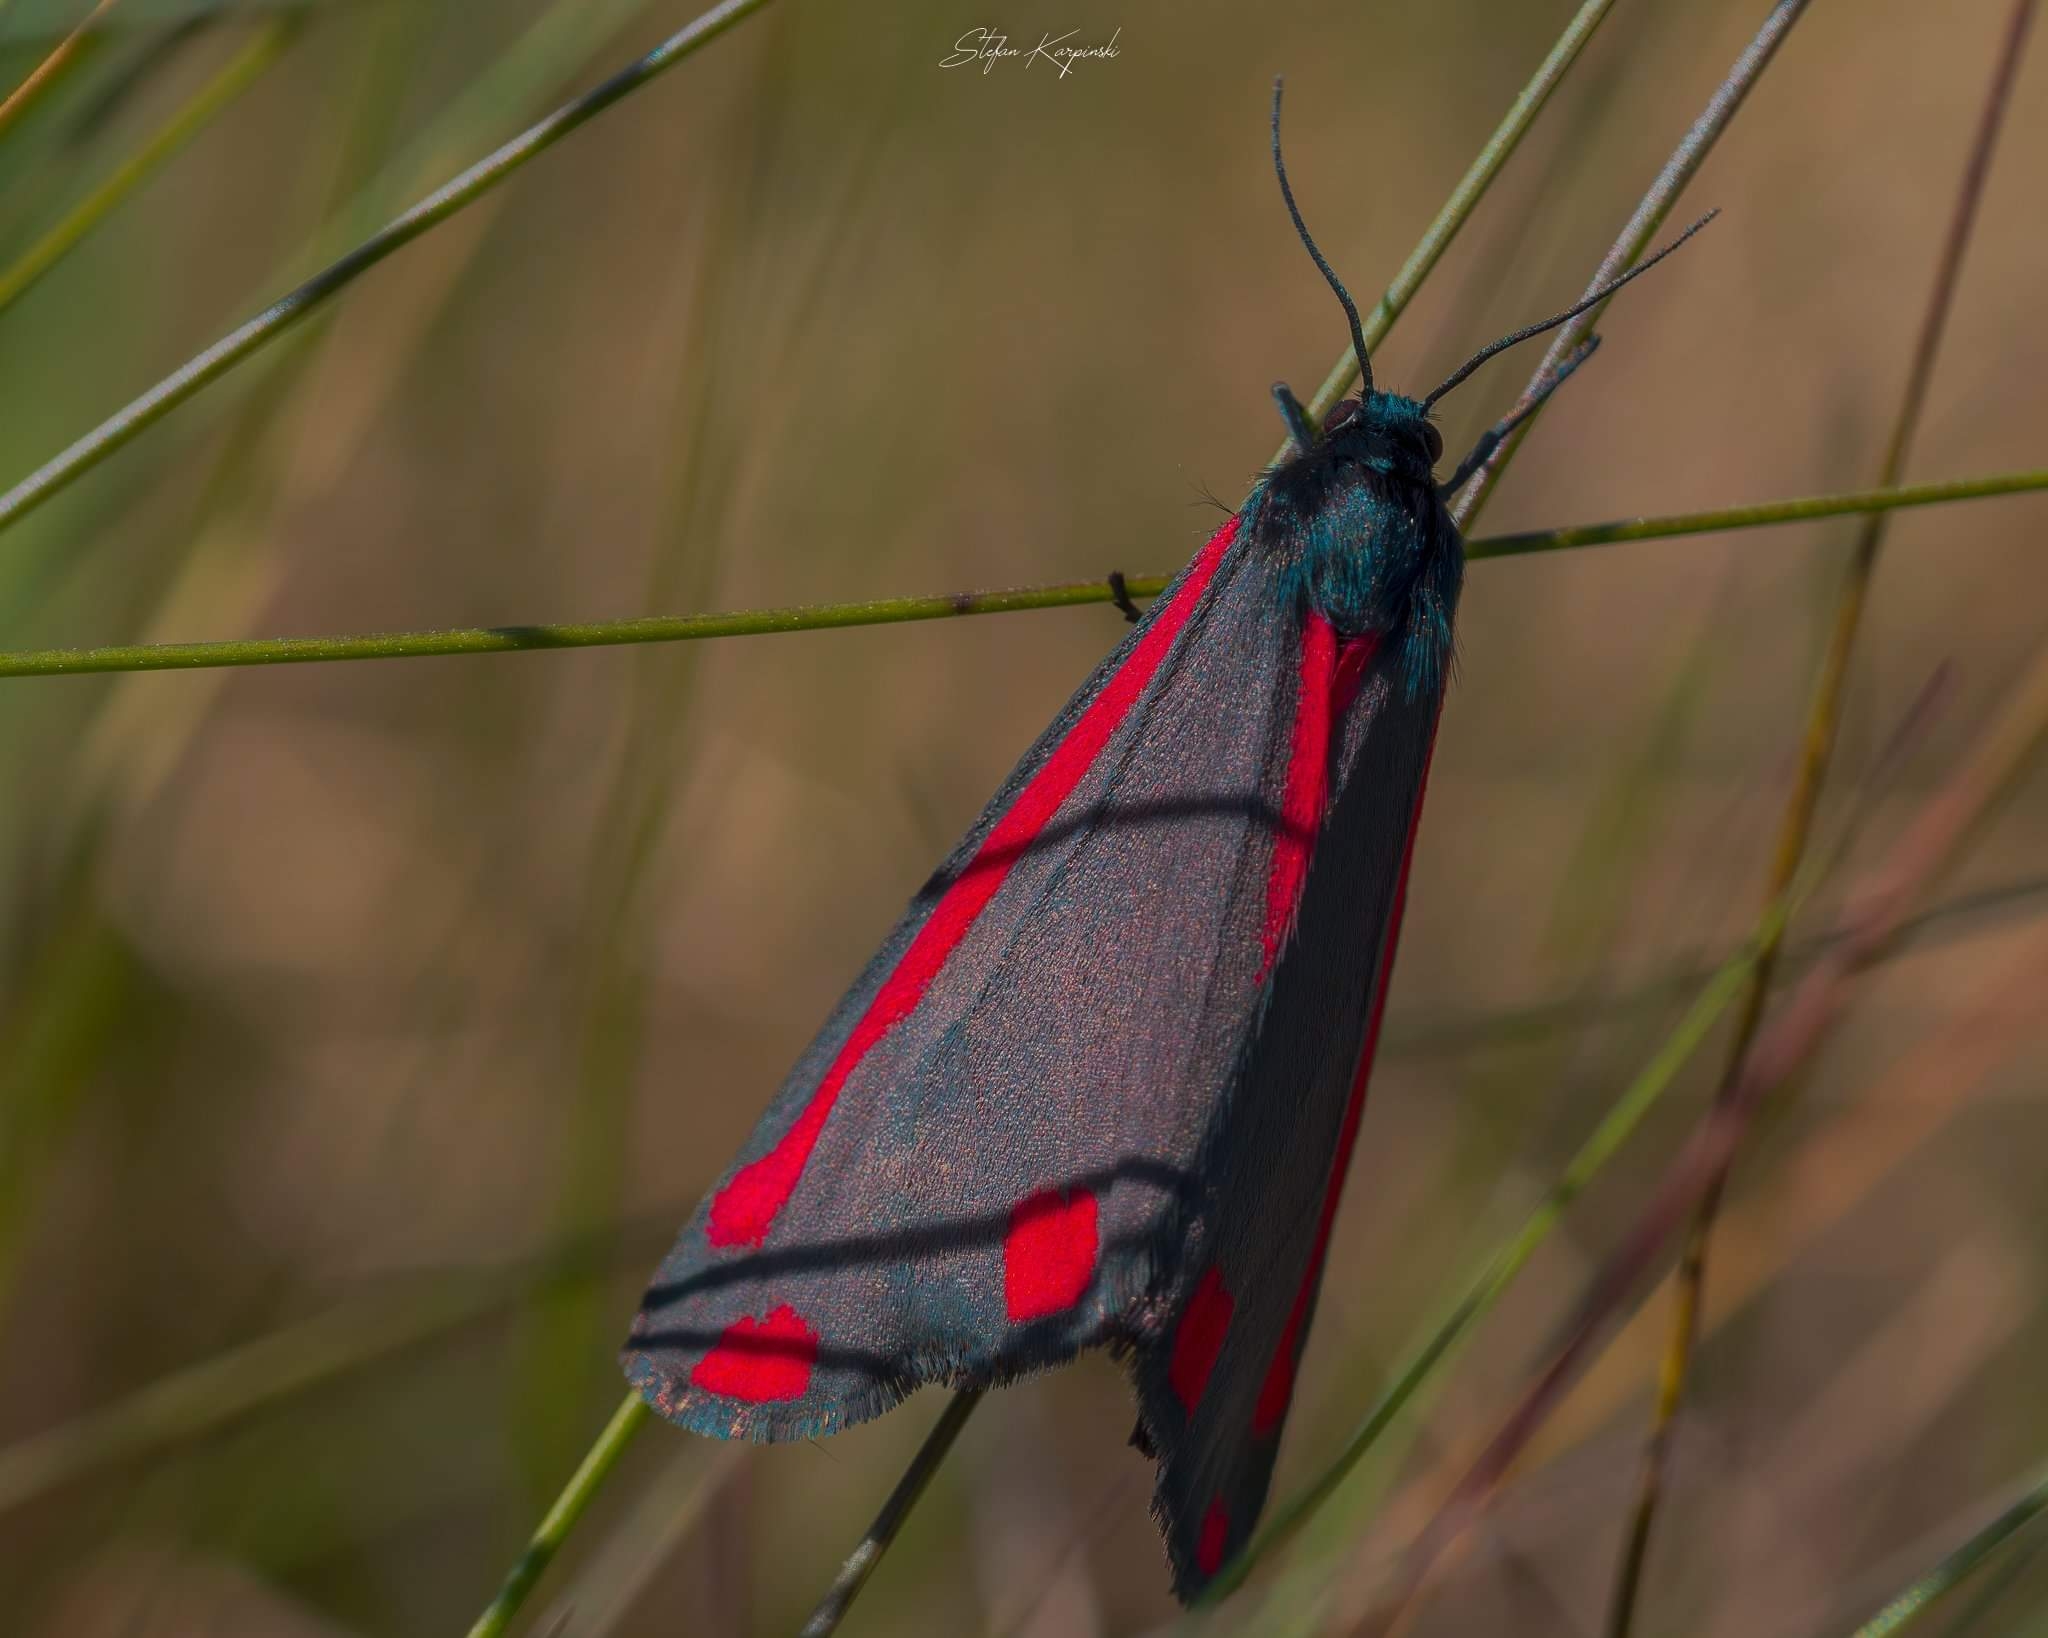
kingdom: Animalia
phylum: Arthropoda
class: Insecta
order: Lepidoptera
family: Erebidae
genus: Tyria
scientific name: Tyria jacobaeae
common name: Blodplet
